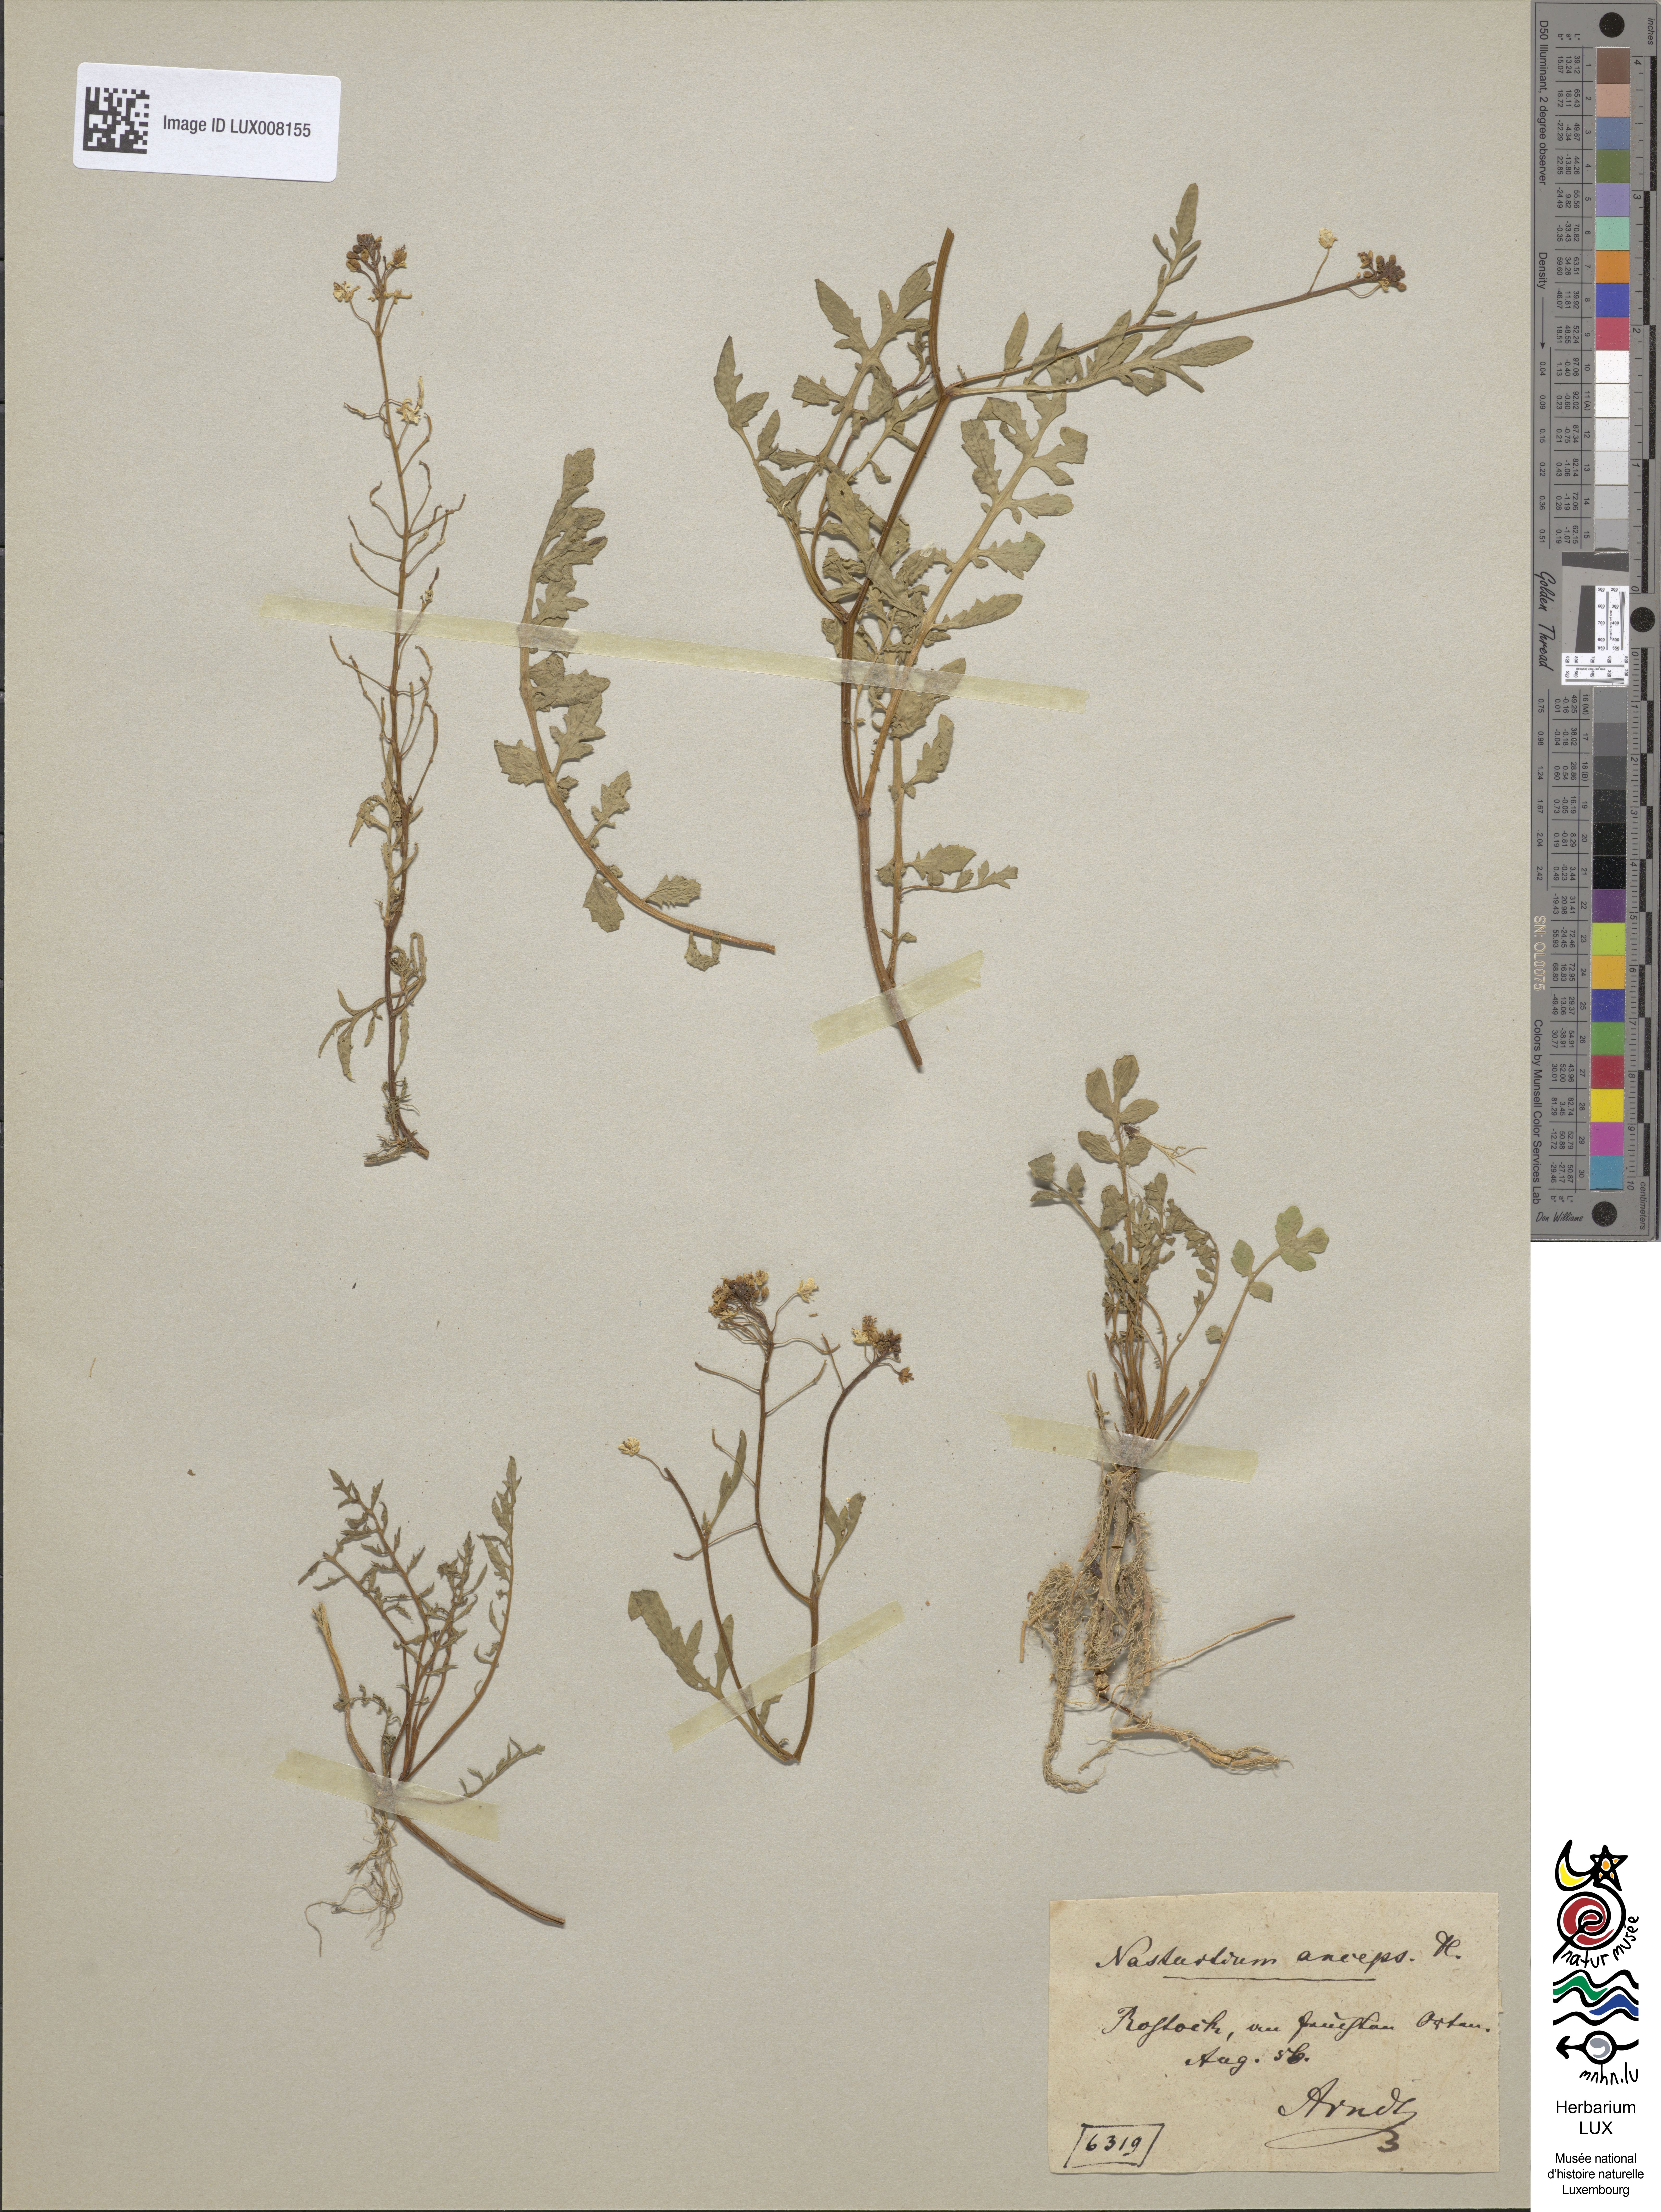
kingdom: Plantae
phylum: Tracheophyta
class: Magnoliopsida
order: Brassicales
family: Brassicaceae
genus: Rorippa
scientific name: Rorippa anceps
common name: Rorippa
